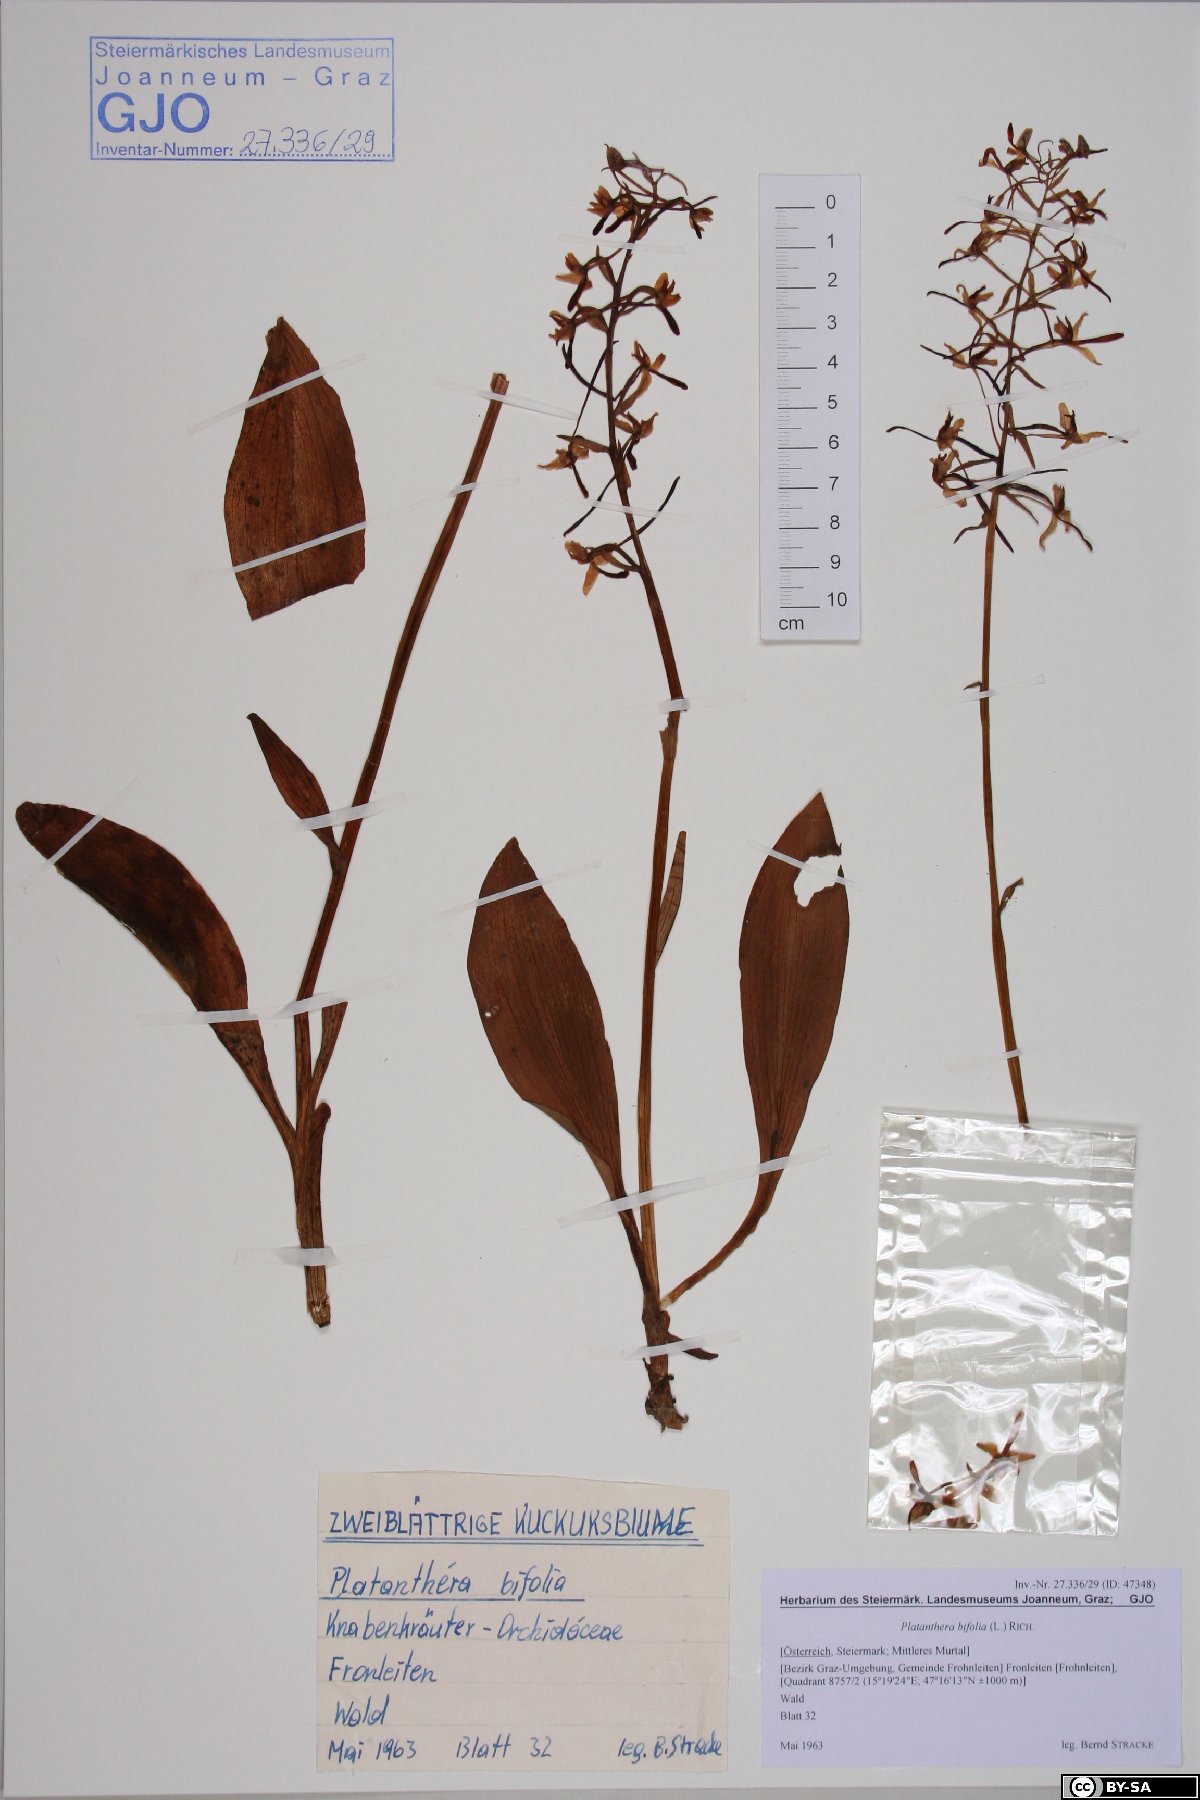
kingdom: Plantae
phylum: Tracheophyta
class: Liliopsida
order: Asparagales
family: Orchidaceae
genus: Platanthera
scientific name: Platanthera bifolia
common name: Lesser butterfly-orchid
